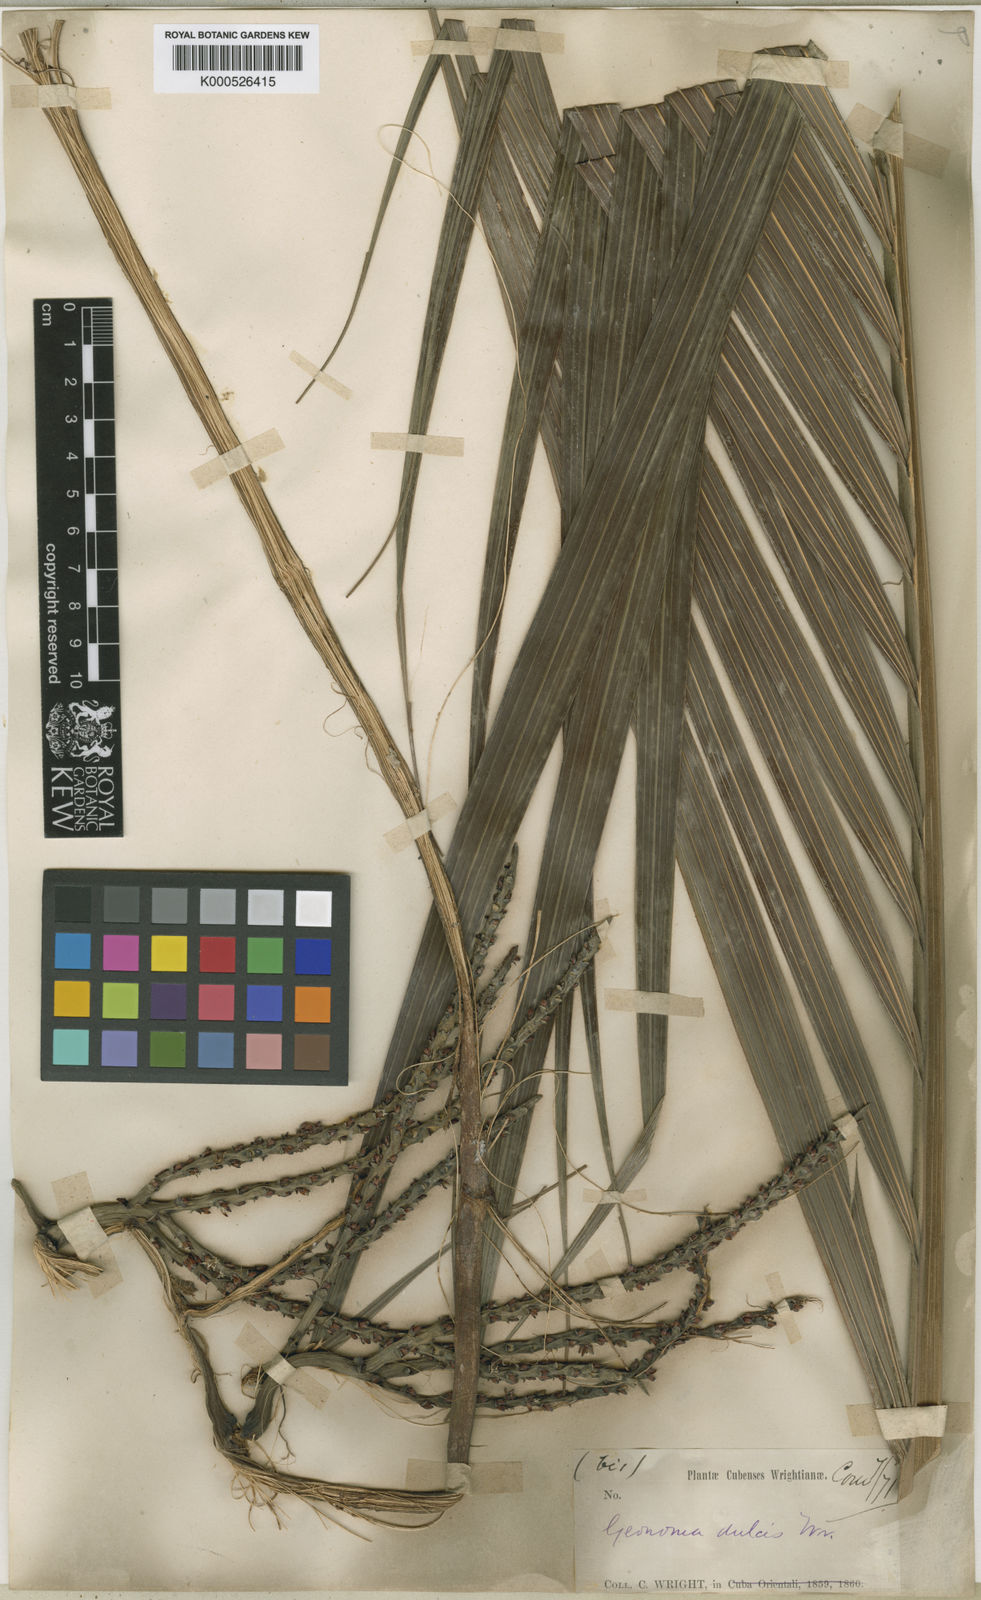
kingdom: Plantae
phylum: Tracheophyta
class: Liliopsida
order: Arecales
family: Arecaceae
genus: Calyptronoma
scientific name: Calyptronoma plumeriana
